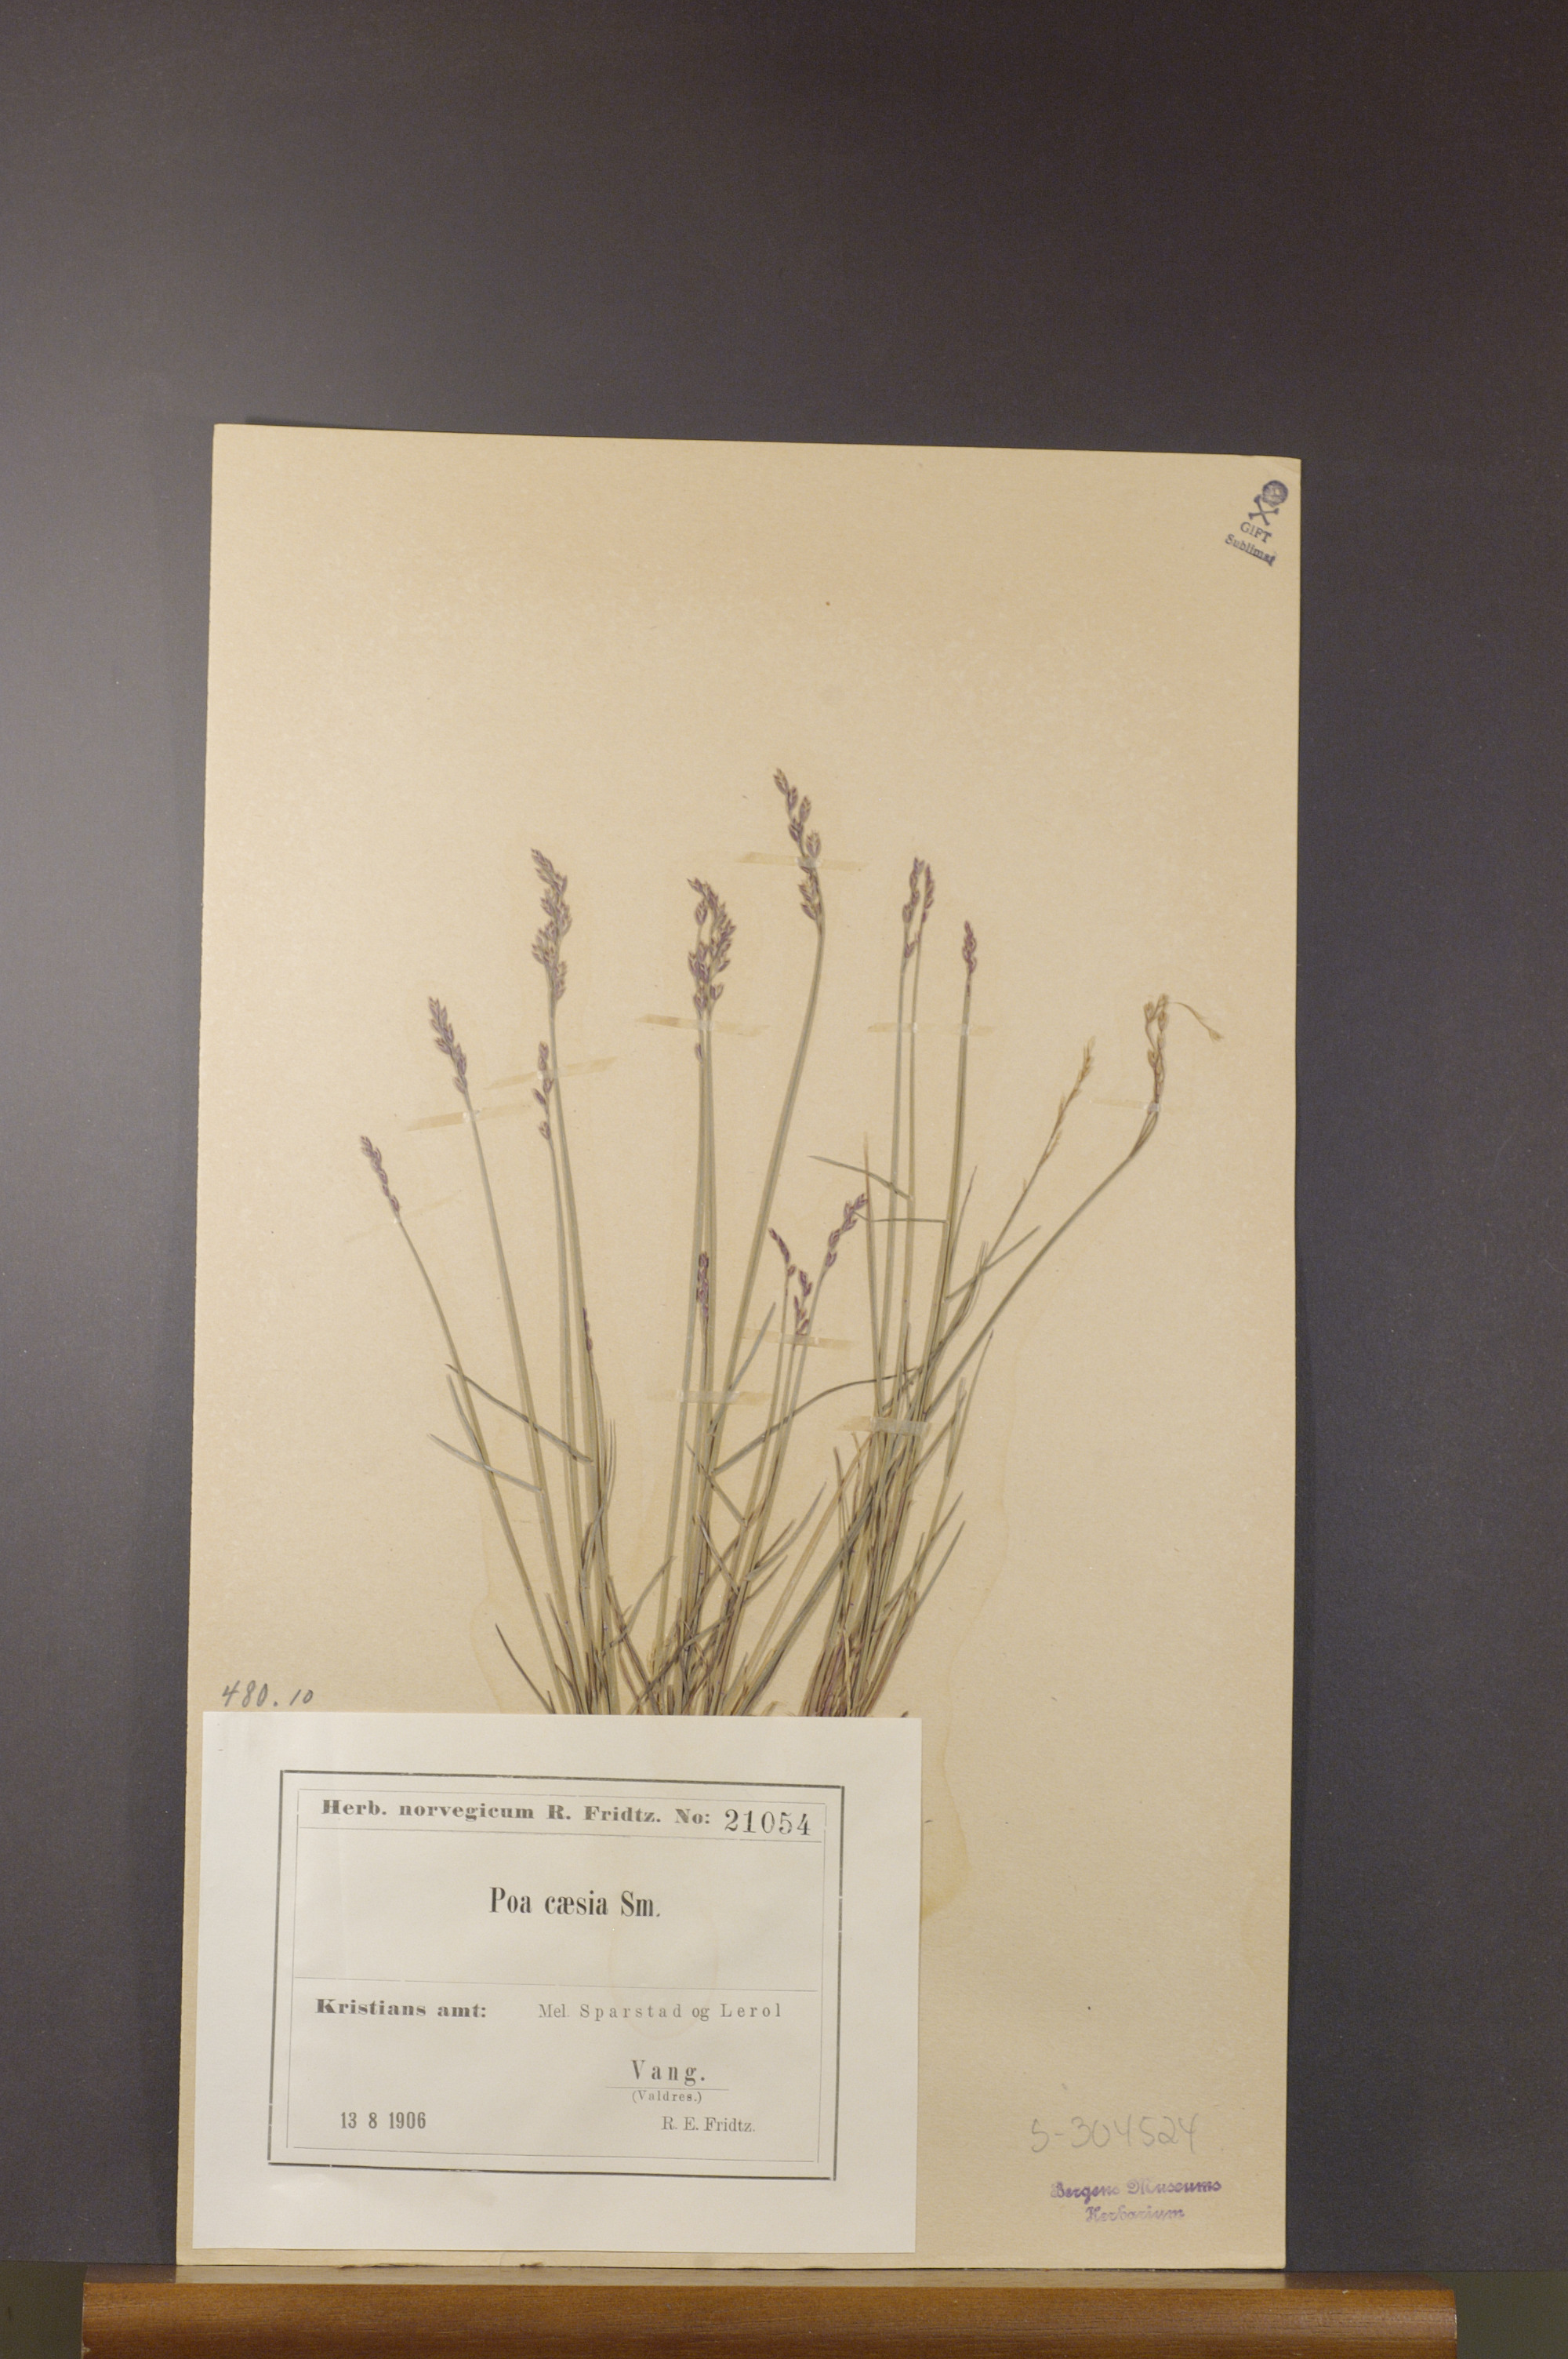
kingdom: Plantae
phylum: Tracheophyta
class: Liliopsida
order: Poales
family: Poaceae
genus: Poa
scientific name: Poa glauca
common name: Glaucous bluegrass
